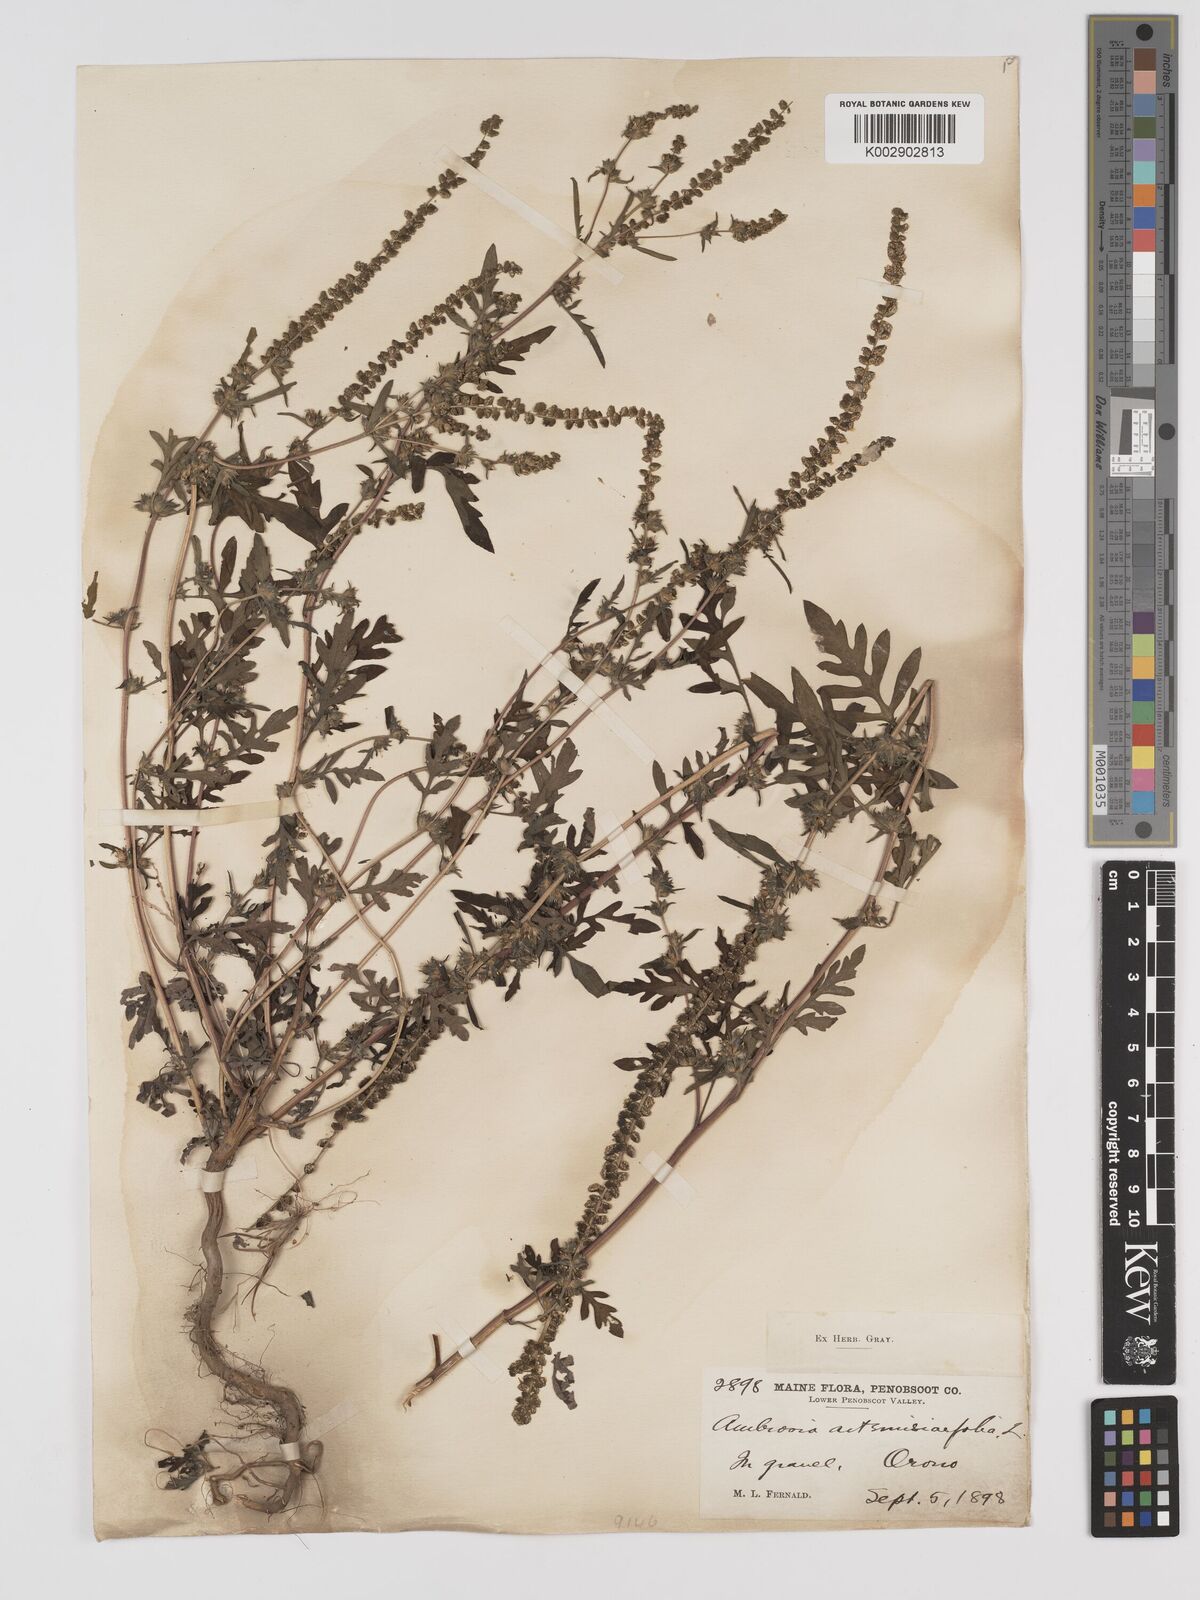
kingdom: Plantae
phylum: Tracheophyta
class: Magnoliopsida
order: Asterales
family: Asteraceae
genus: Ambrosia
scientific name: Ambrosia artemisiifolia
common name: Annual ragweed
